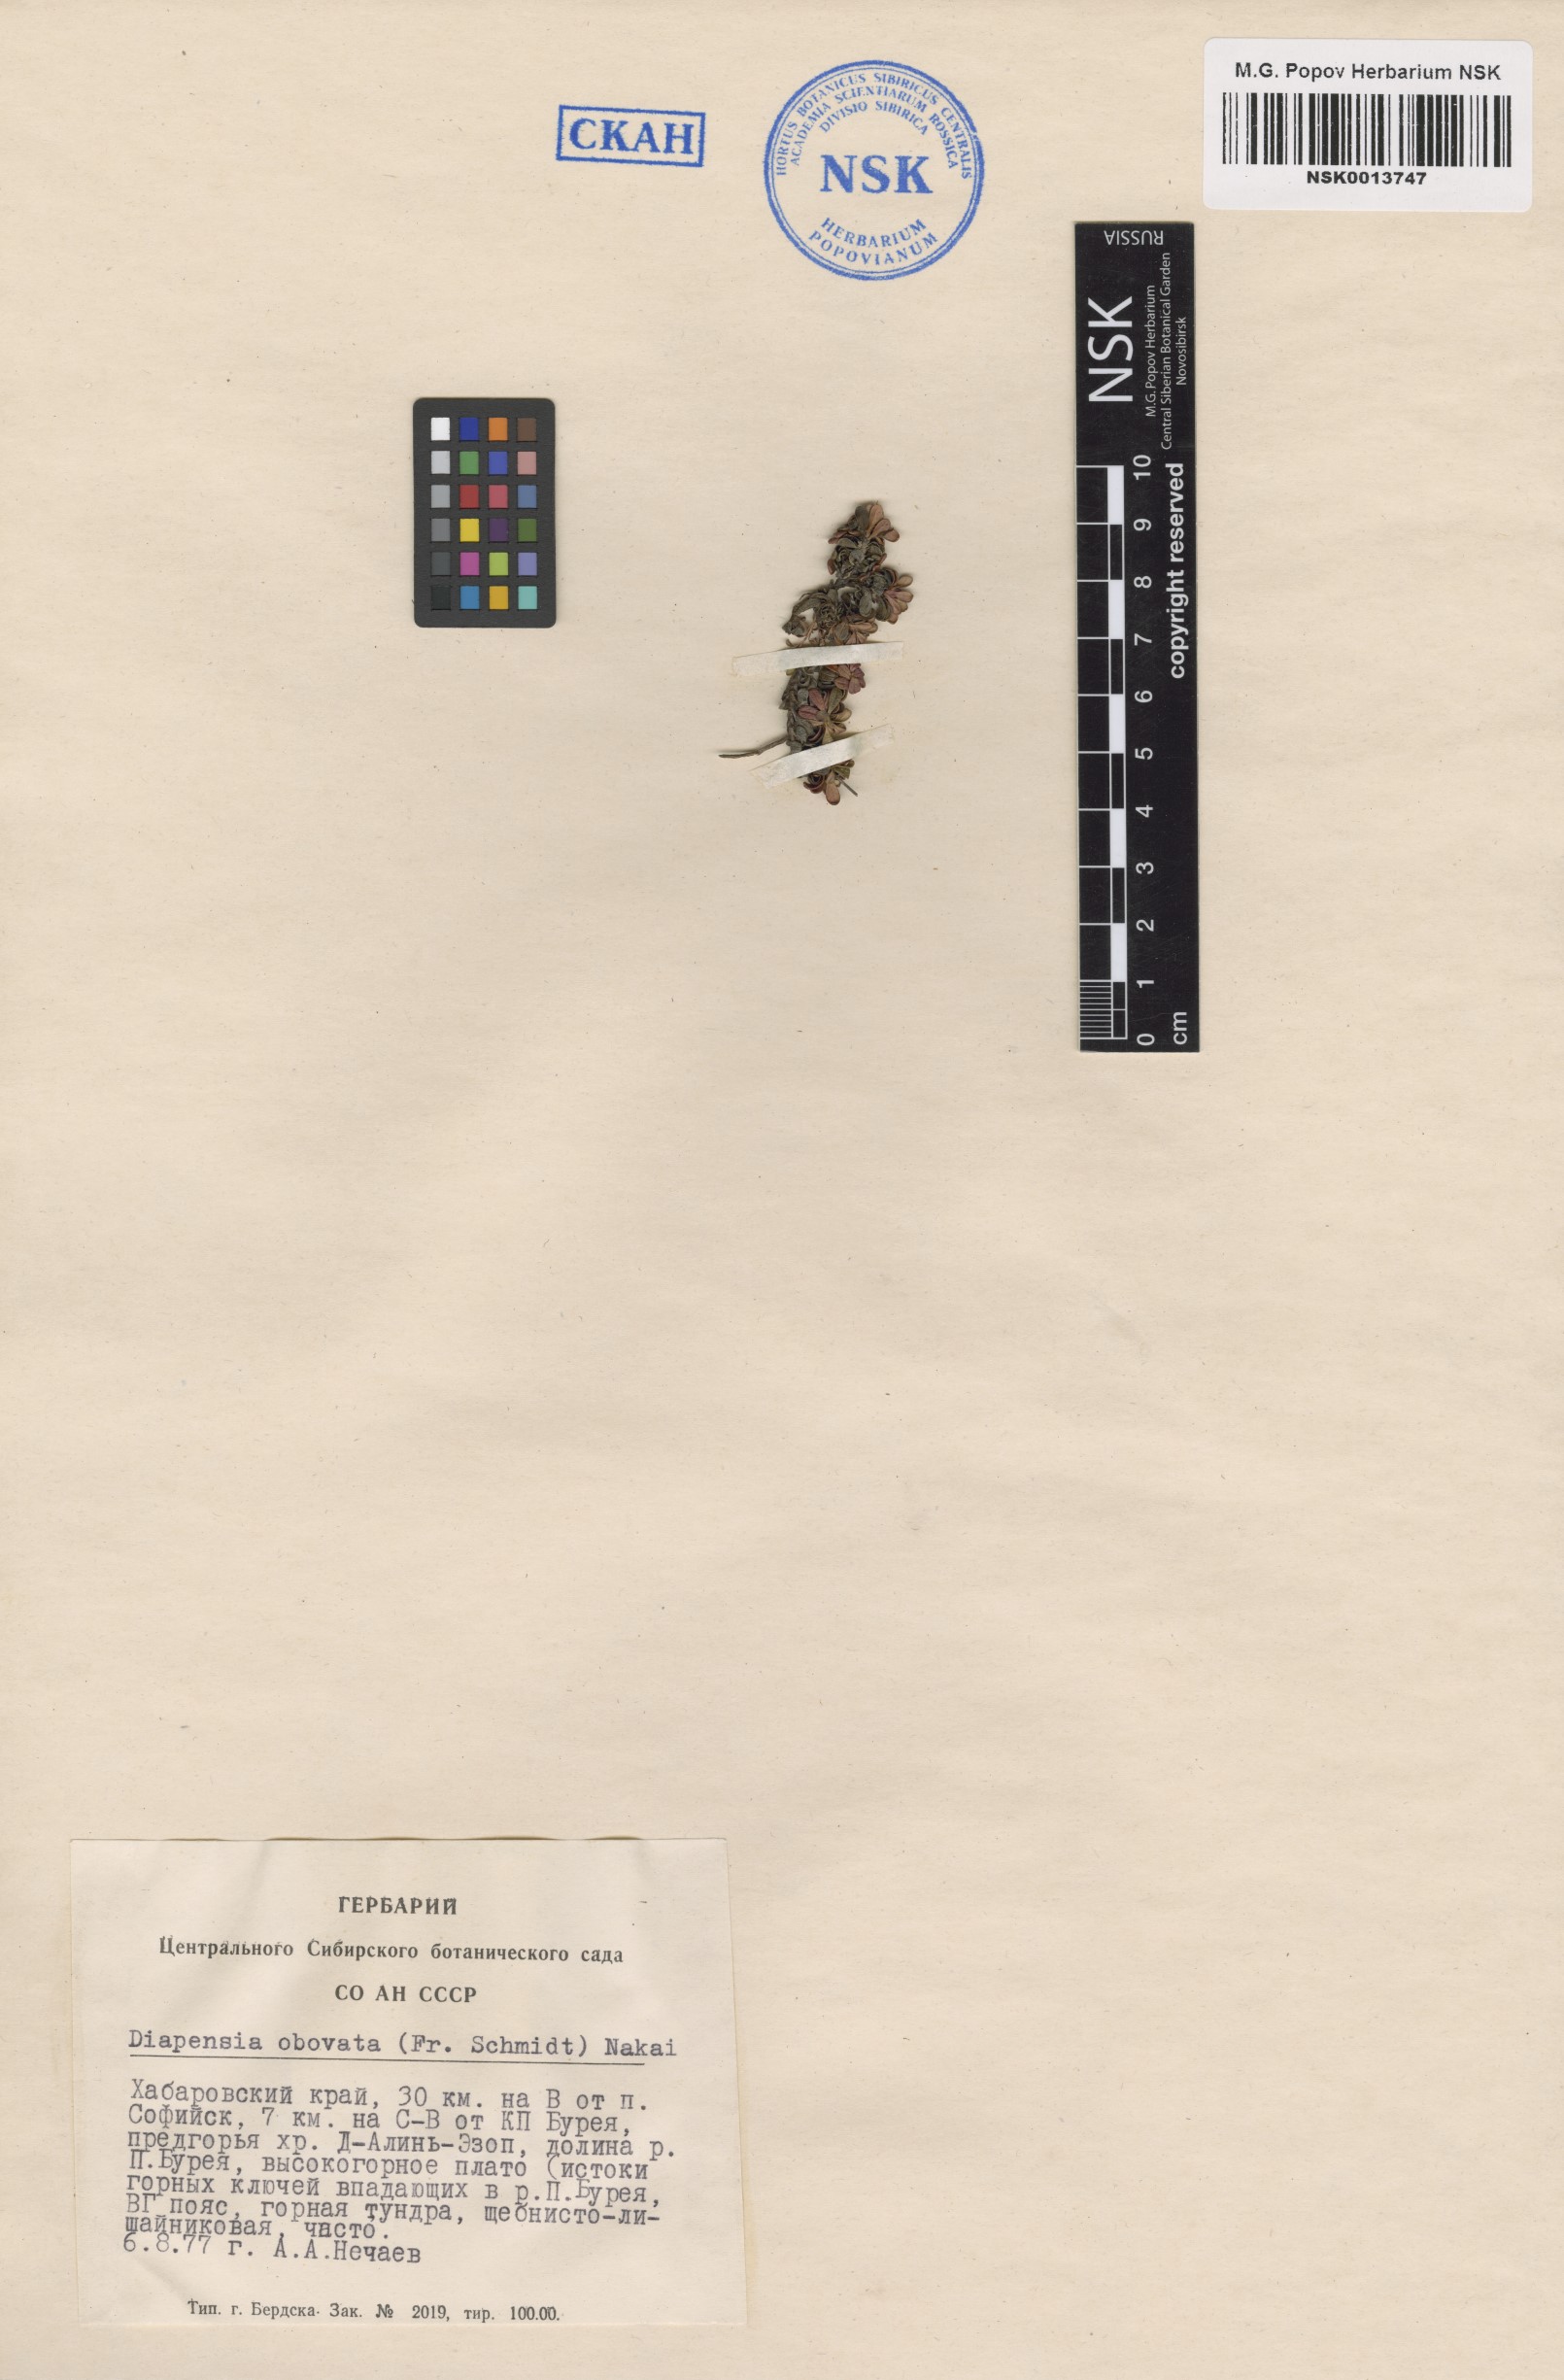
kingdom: Plantae
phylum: Tracheophyta
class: Magnoliopsida
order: Ericales
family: Diapensiaceae
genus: Diapensia
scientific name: Diapensia obovata
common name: Alaska diapensia
